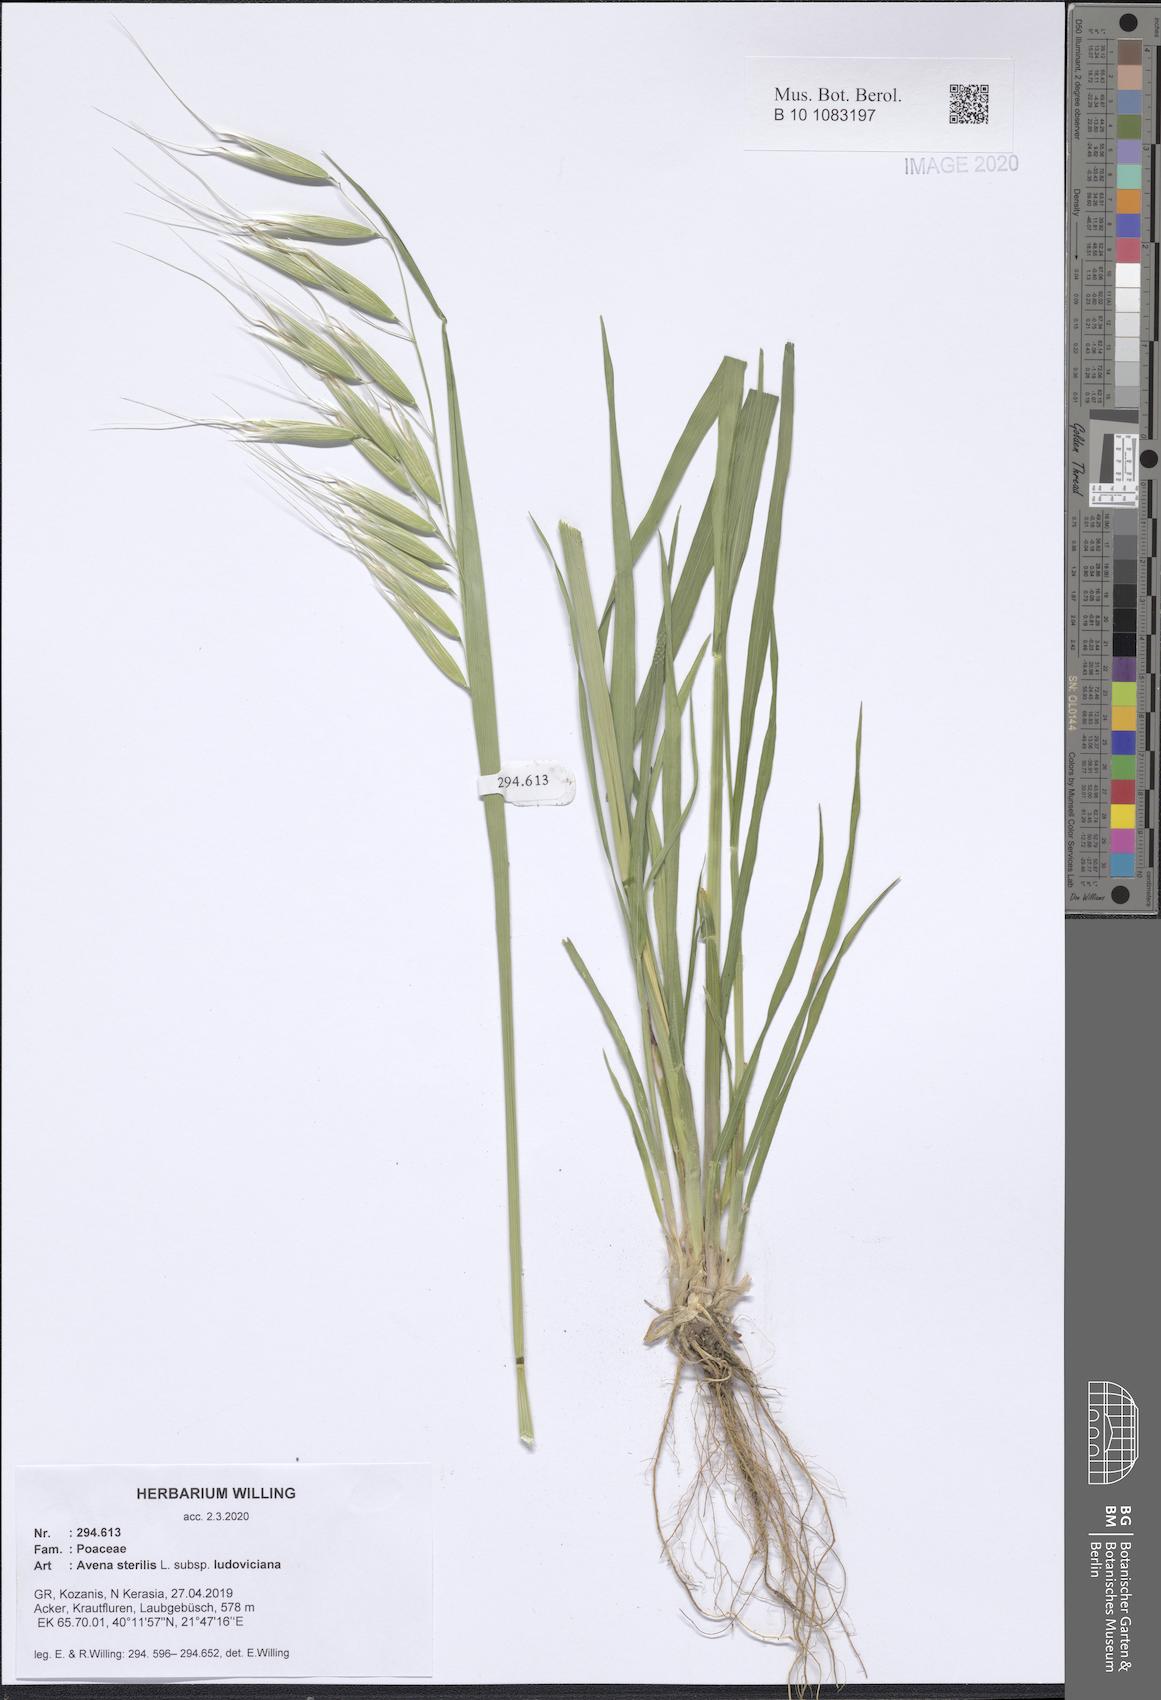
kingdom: Plantae
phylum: Tracheophyta
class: Liliopsida
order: Poales
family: Poaceae
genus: Avena
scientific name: Avena sterilis
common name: Animated oat
